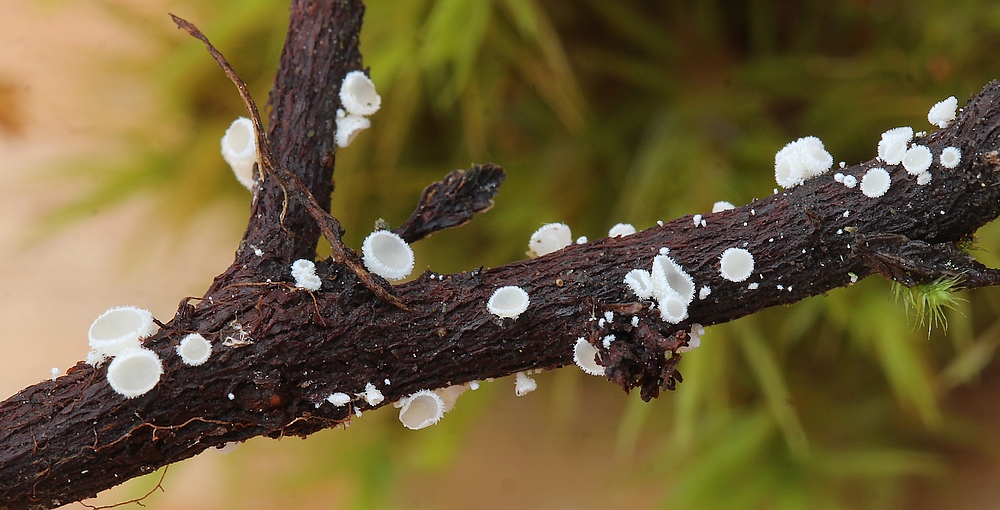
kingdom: Fungi
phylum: Ascomycota
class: Leotiomycetes
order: Helotiales
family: Lachnaceae
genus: Lachnum
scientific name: Lachnum
